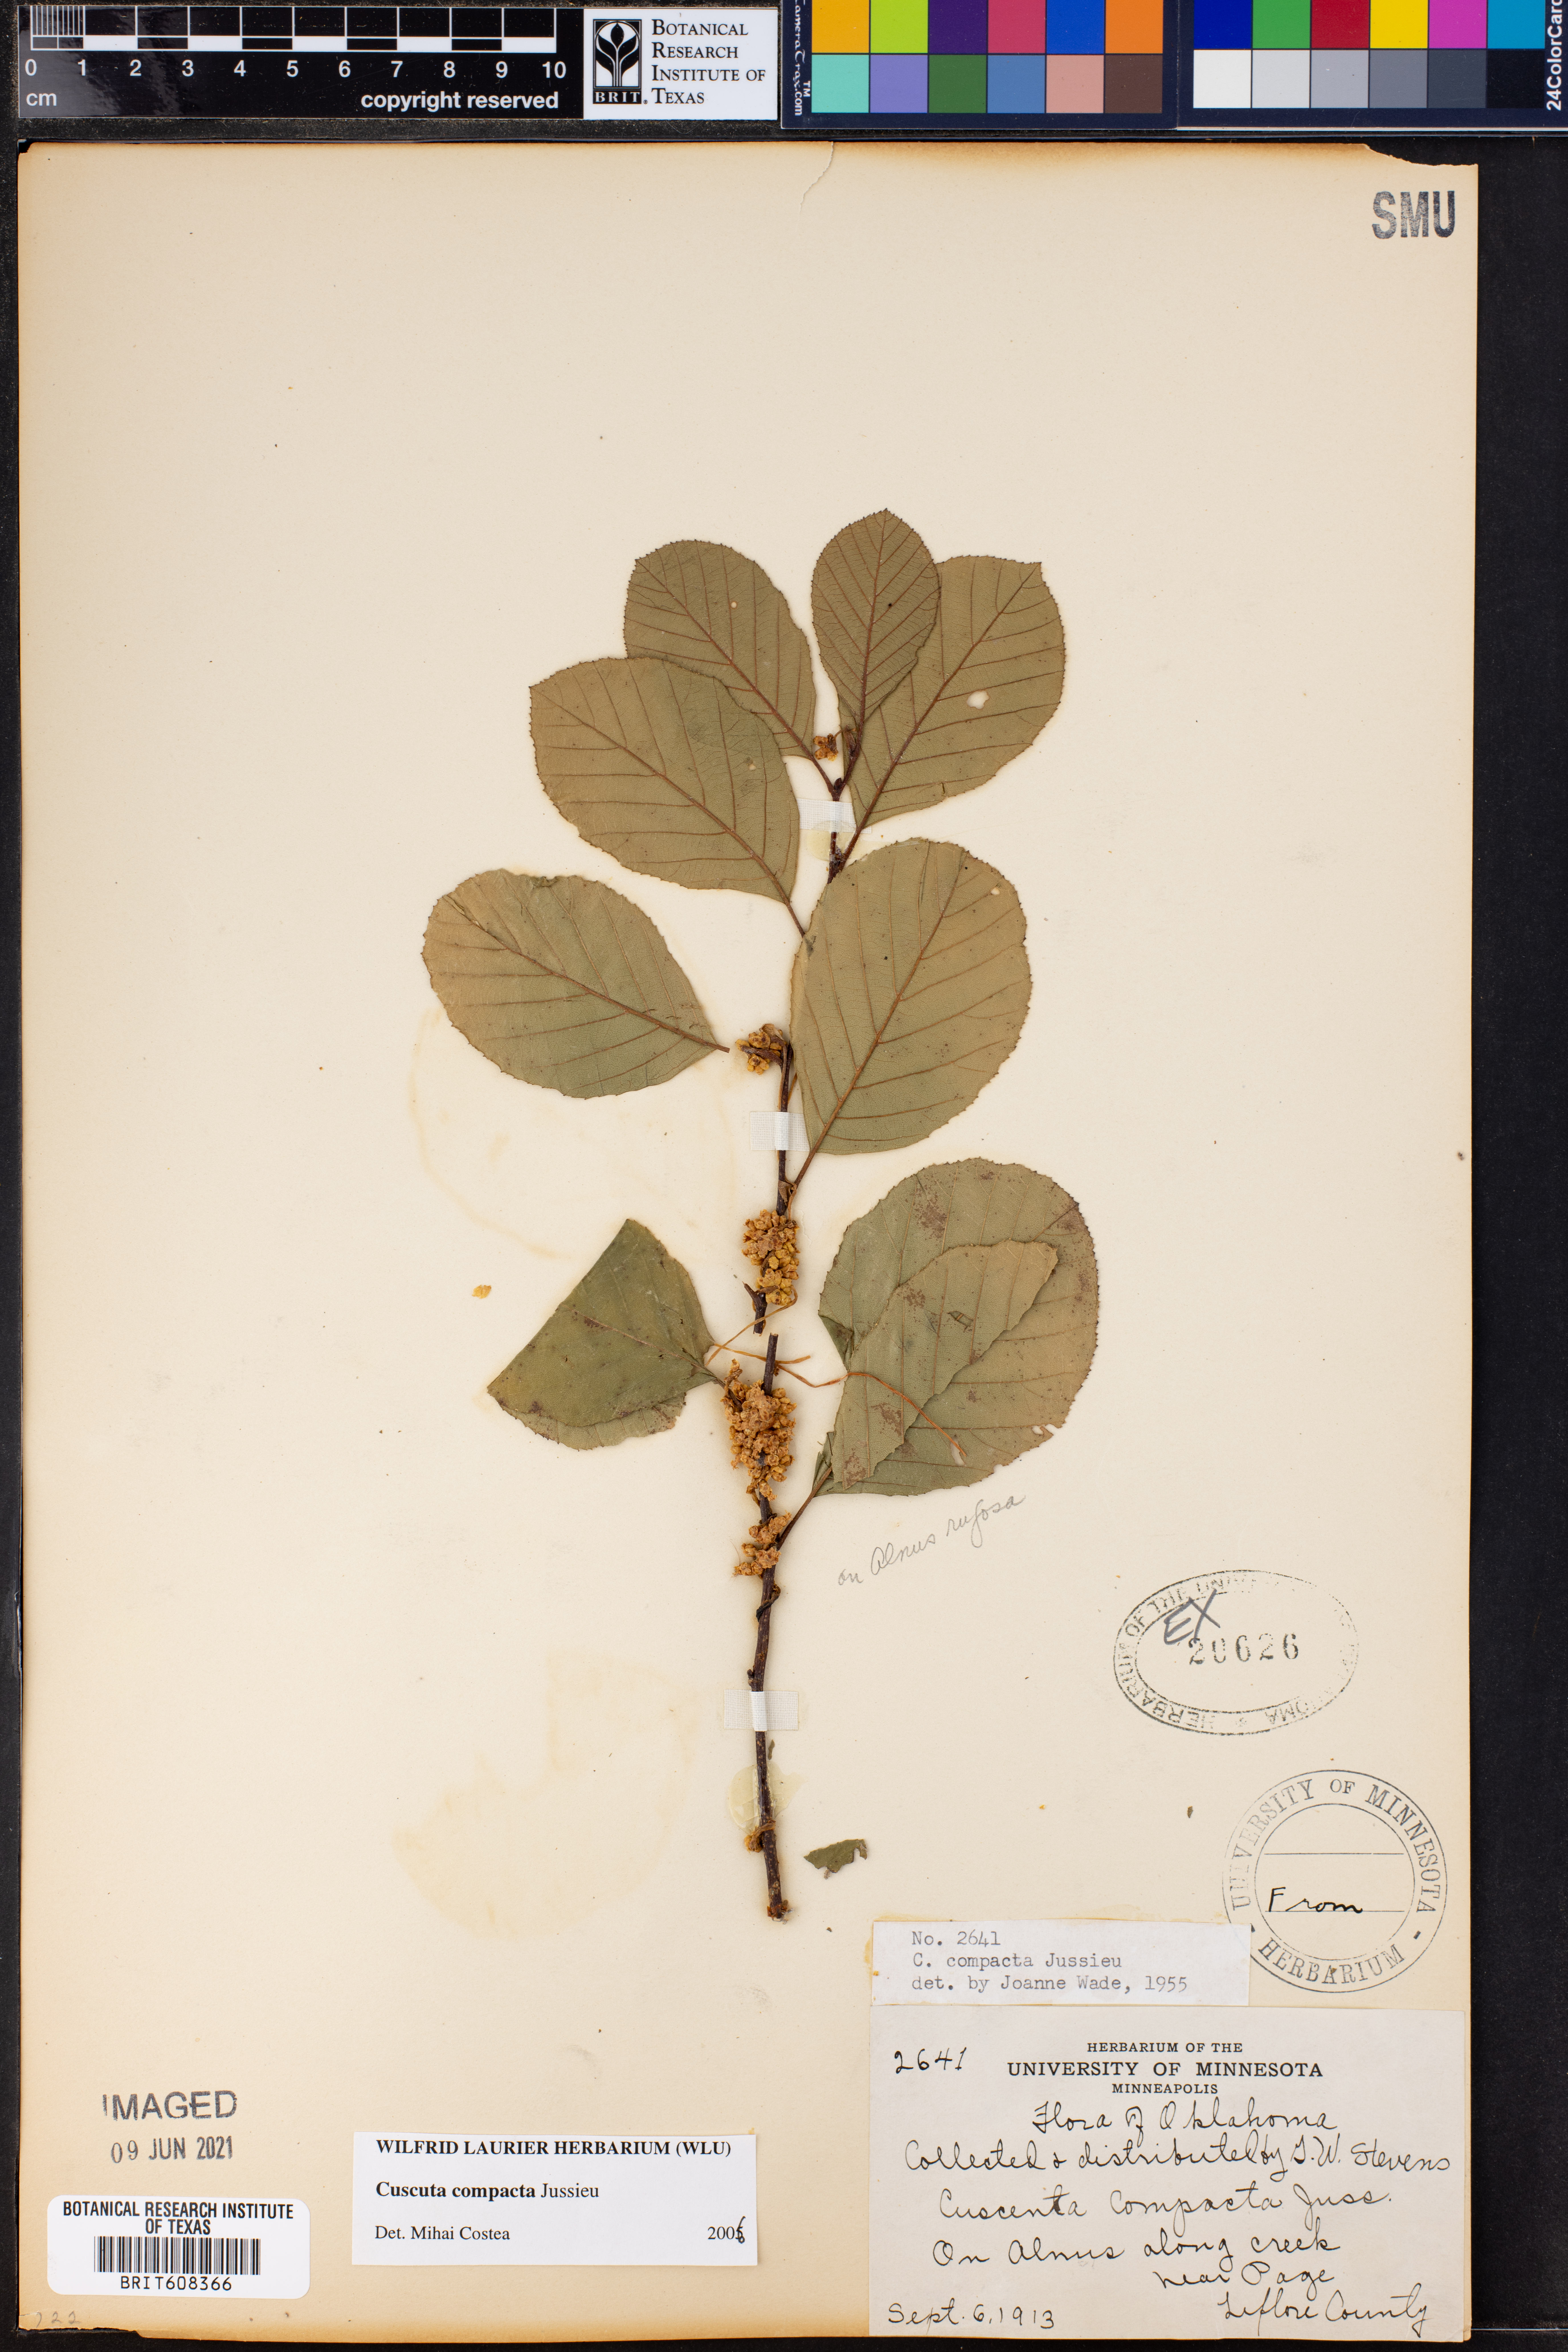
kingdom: Plantae
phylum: Tracheophyta
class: Magnoliopsida
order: Solanales
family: Convolvulaceae
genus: Cuscuta
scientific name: Cuscuta compacta
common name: Compact dodder
